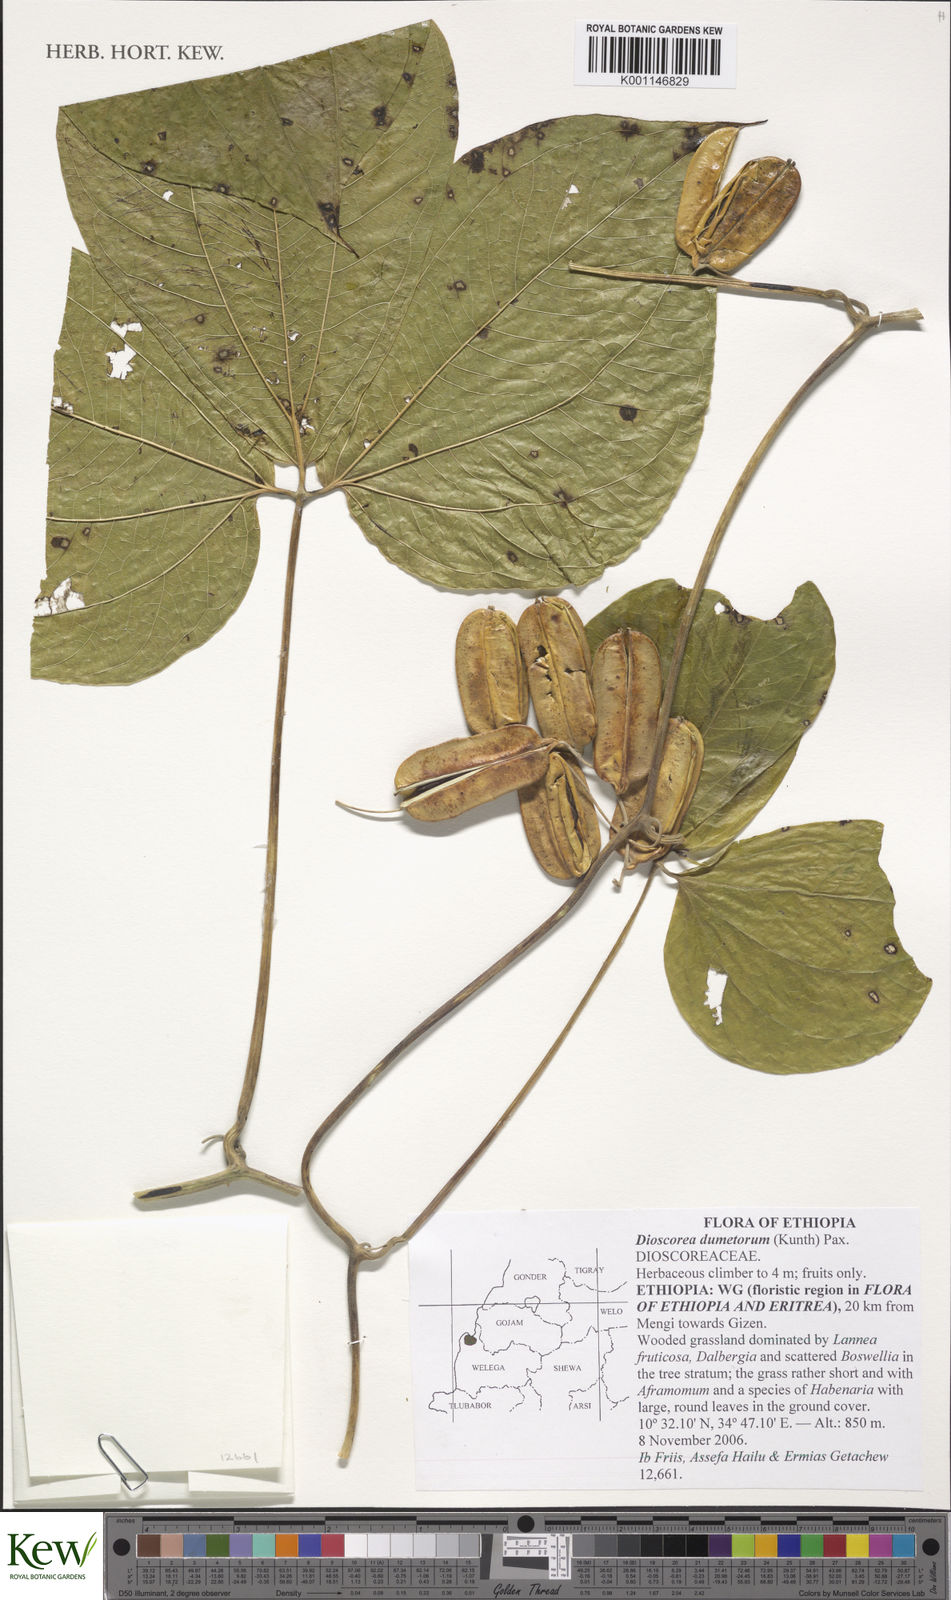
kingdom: Plantae
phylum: Tracheophyta
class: Liliopsida
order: Dioscoreales
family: Dioscoreaceae
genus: Dioscorea
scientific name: Dioscorea dumetorum
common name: African bitter yam
